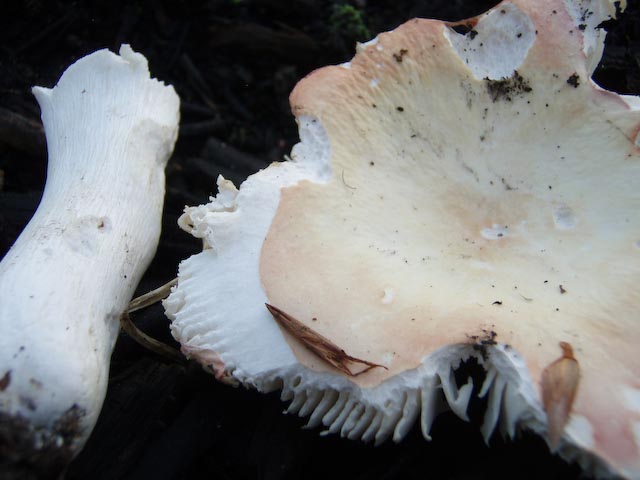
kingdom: Fungi
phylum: Basidiomycota
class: Agaricomycetes
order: Russulales
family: Russulaceae
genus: Russula
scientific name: Russula aurora
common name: rosa skørhat
